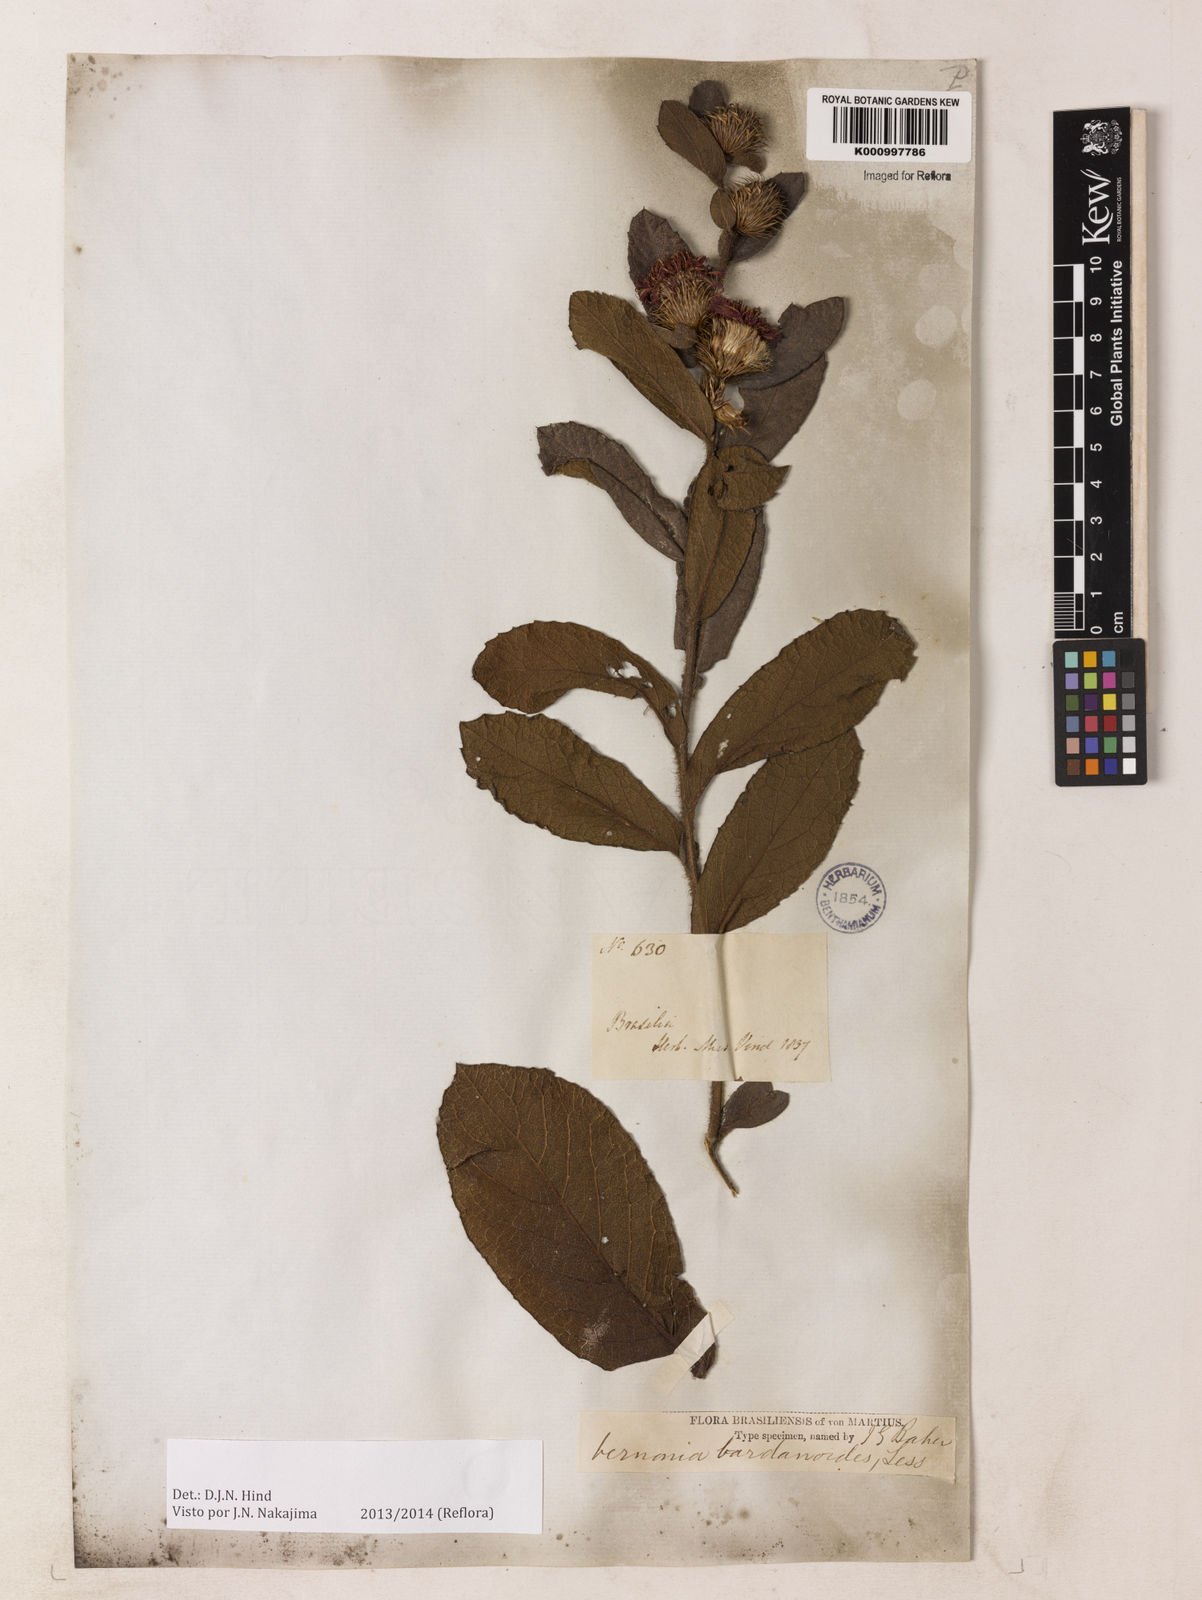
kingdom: Plantae
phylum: Tracheophyta
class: Magnoliopsida
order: Asterales
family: Asteraceae
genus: Lessingianthus
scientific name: Lessingianthus bardanioides
